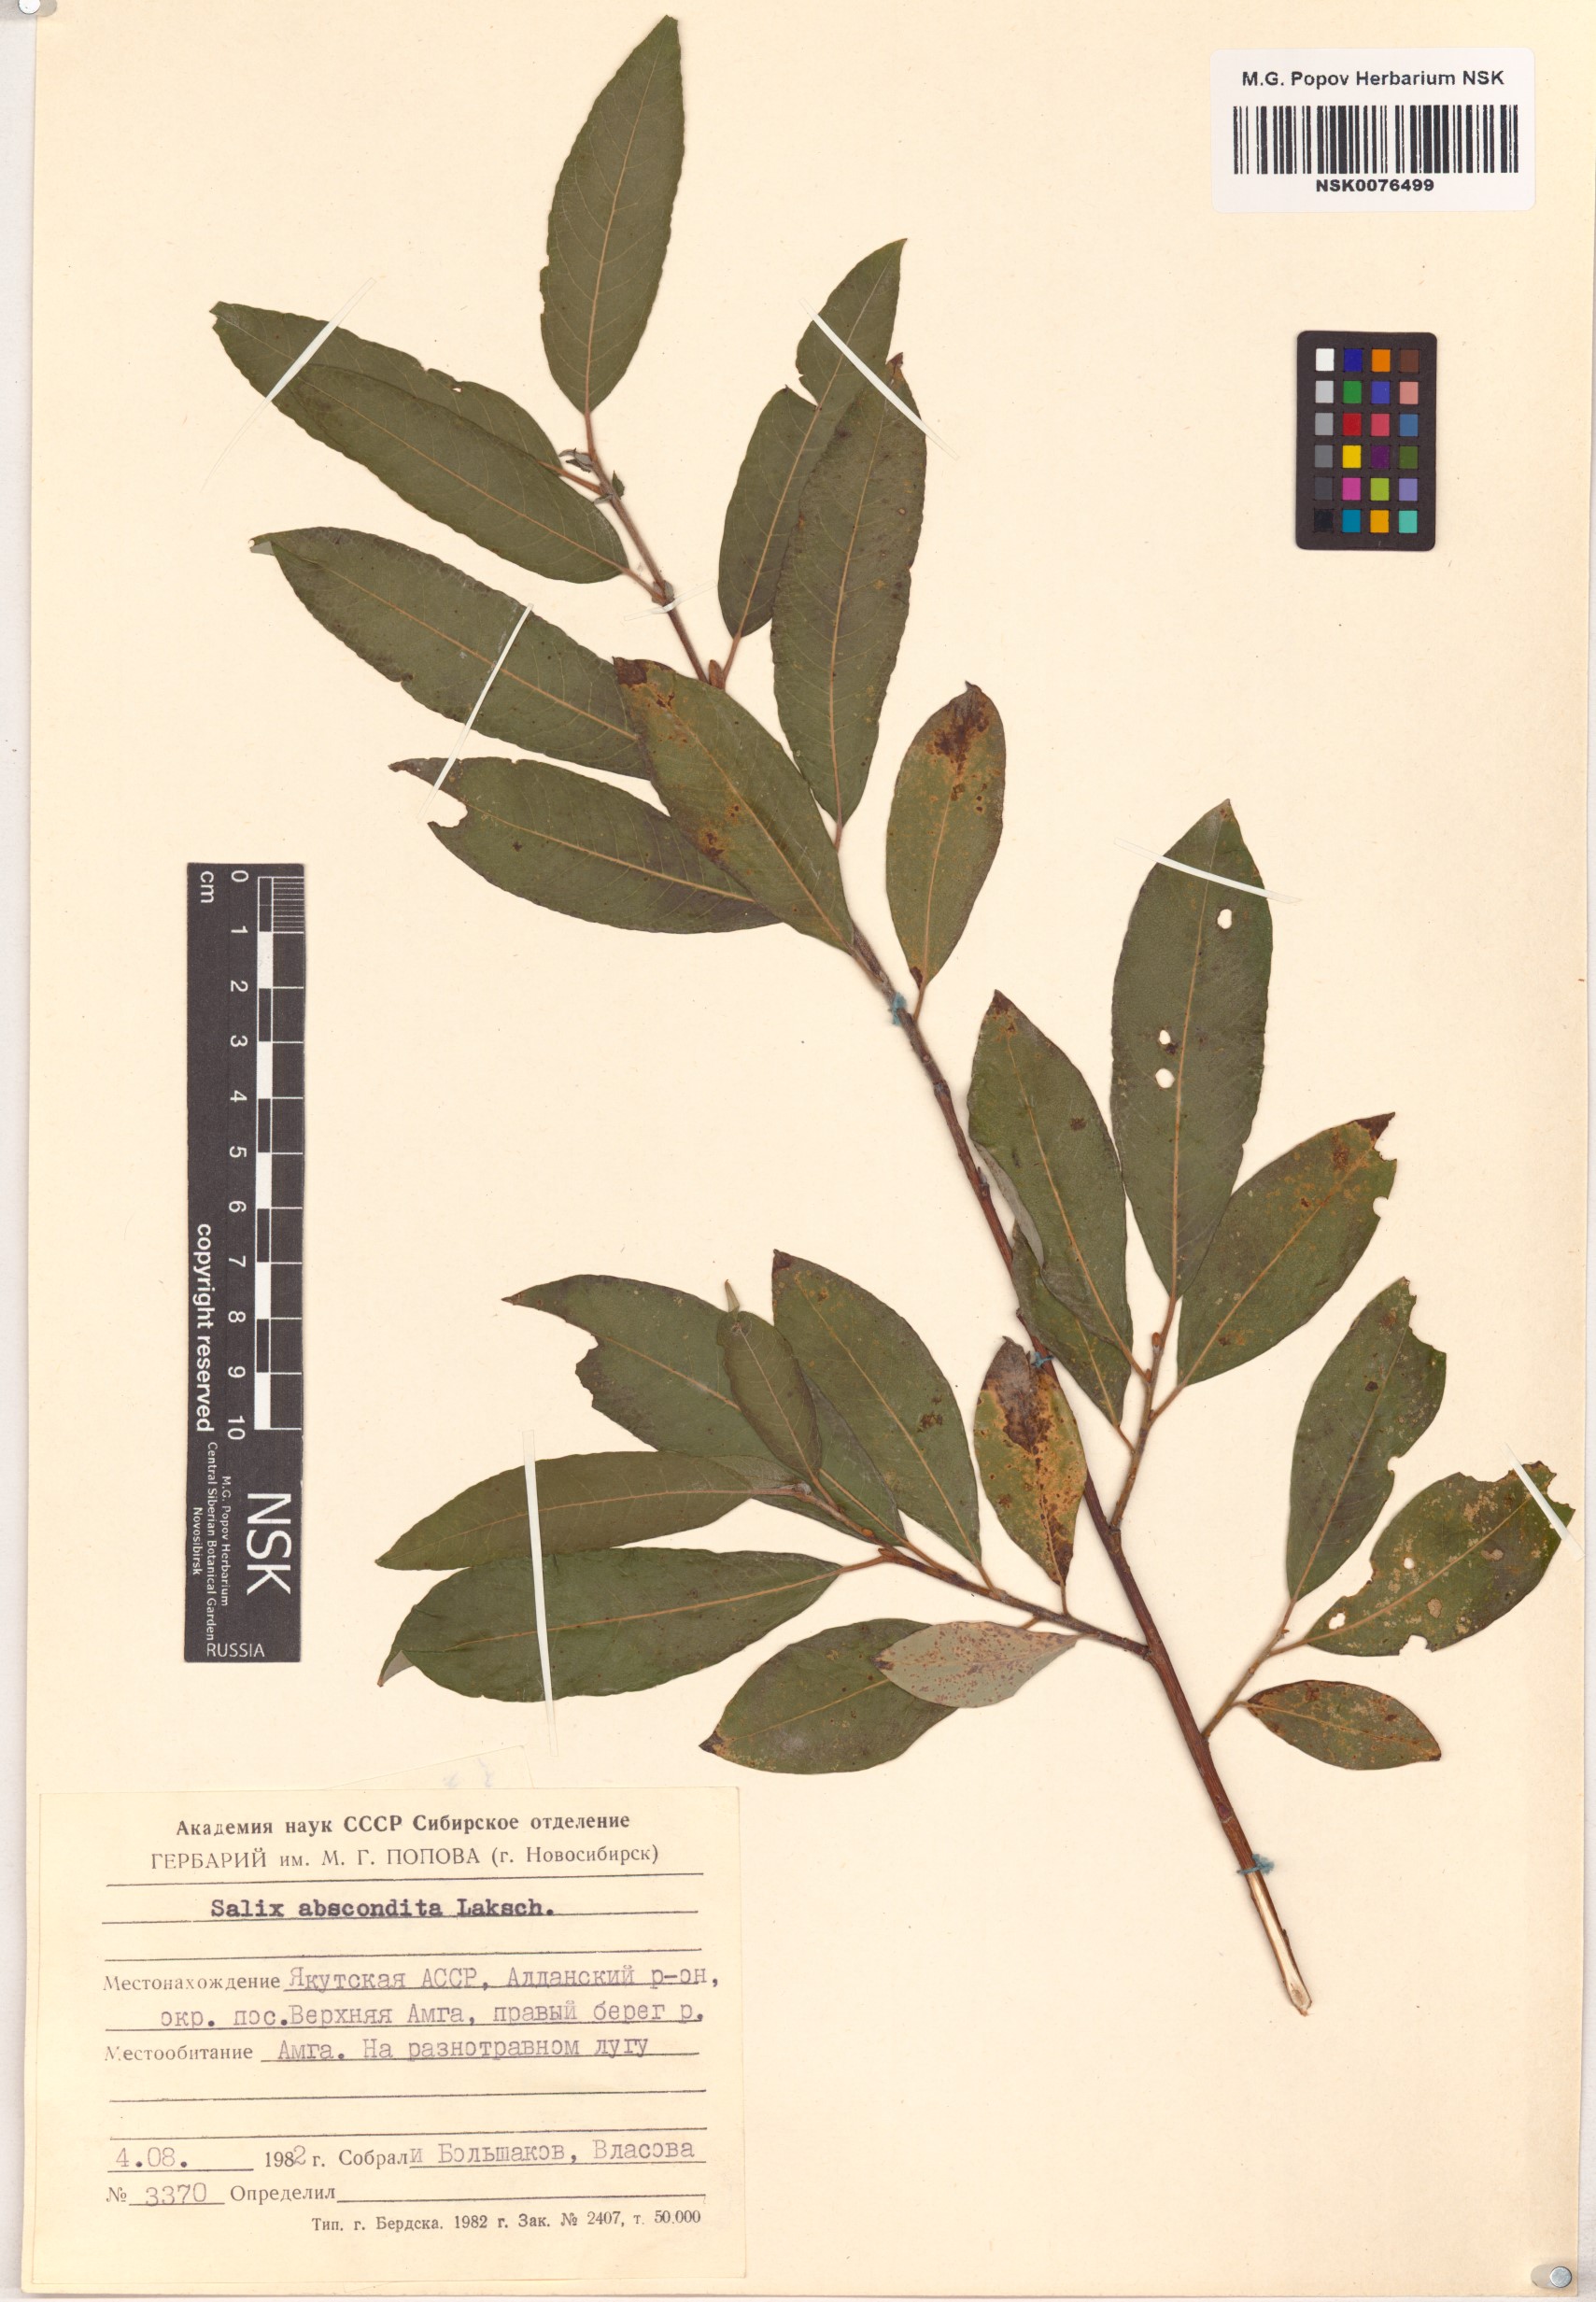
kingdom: Plantae
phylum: Tracheophyta
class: Magnoliopsida
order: Malpighiales
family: Salicaceae
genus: Salix
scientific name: Salix abscondita
